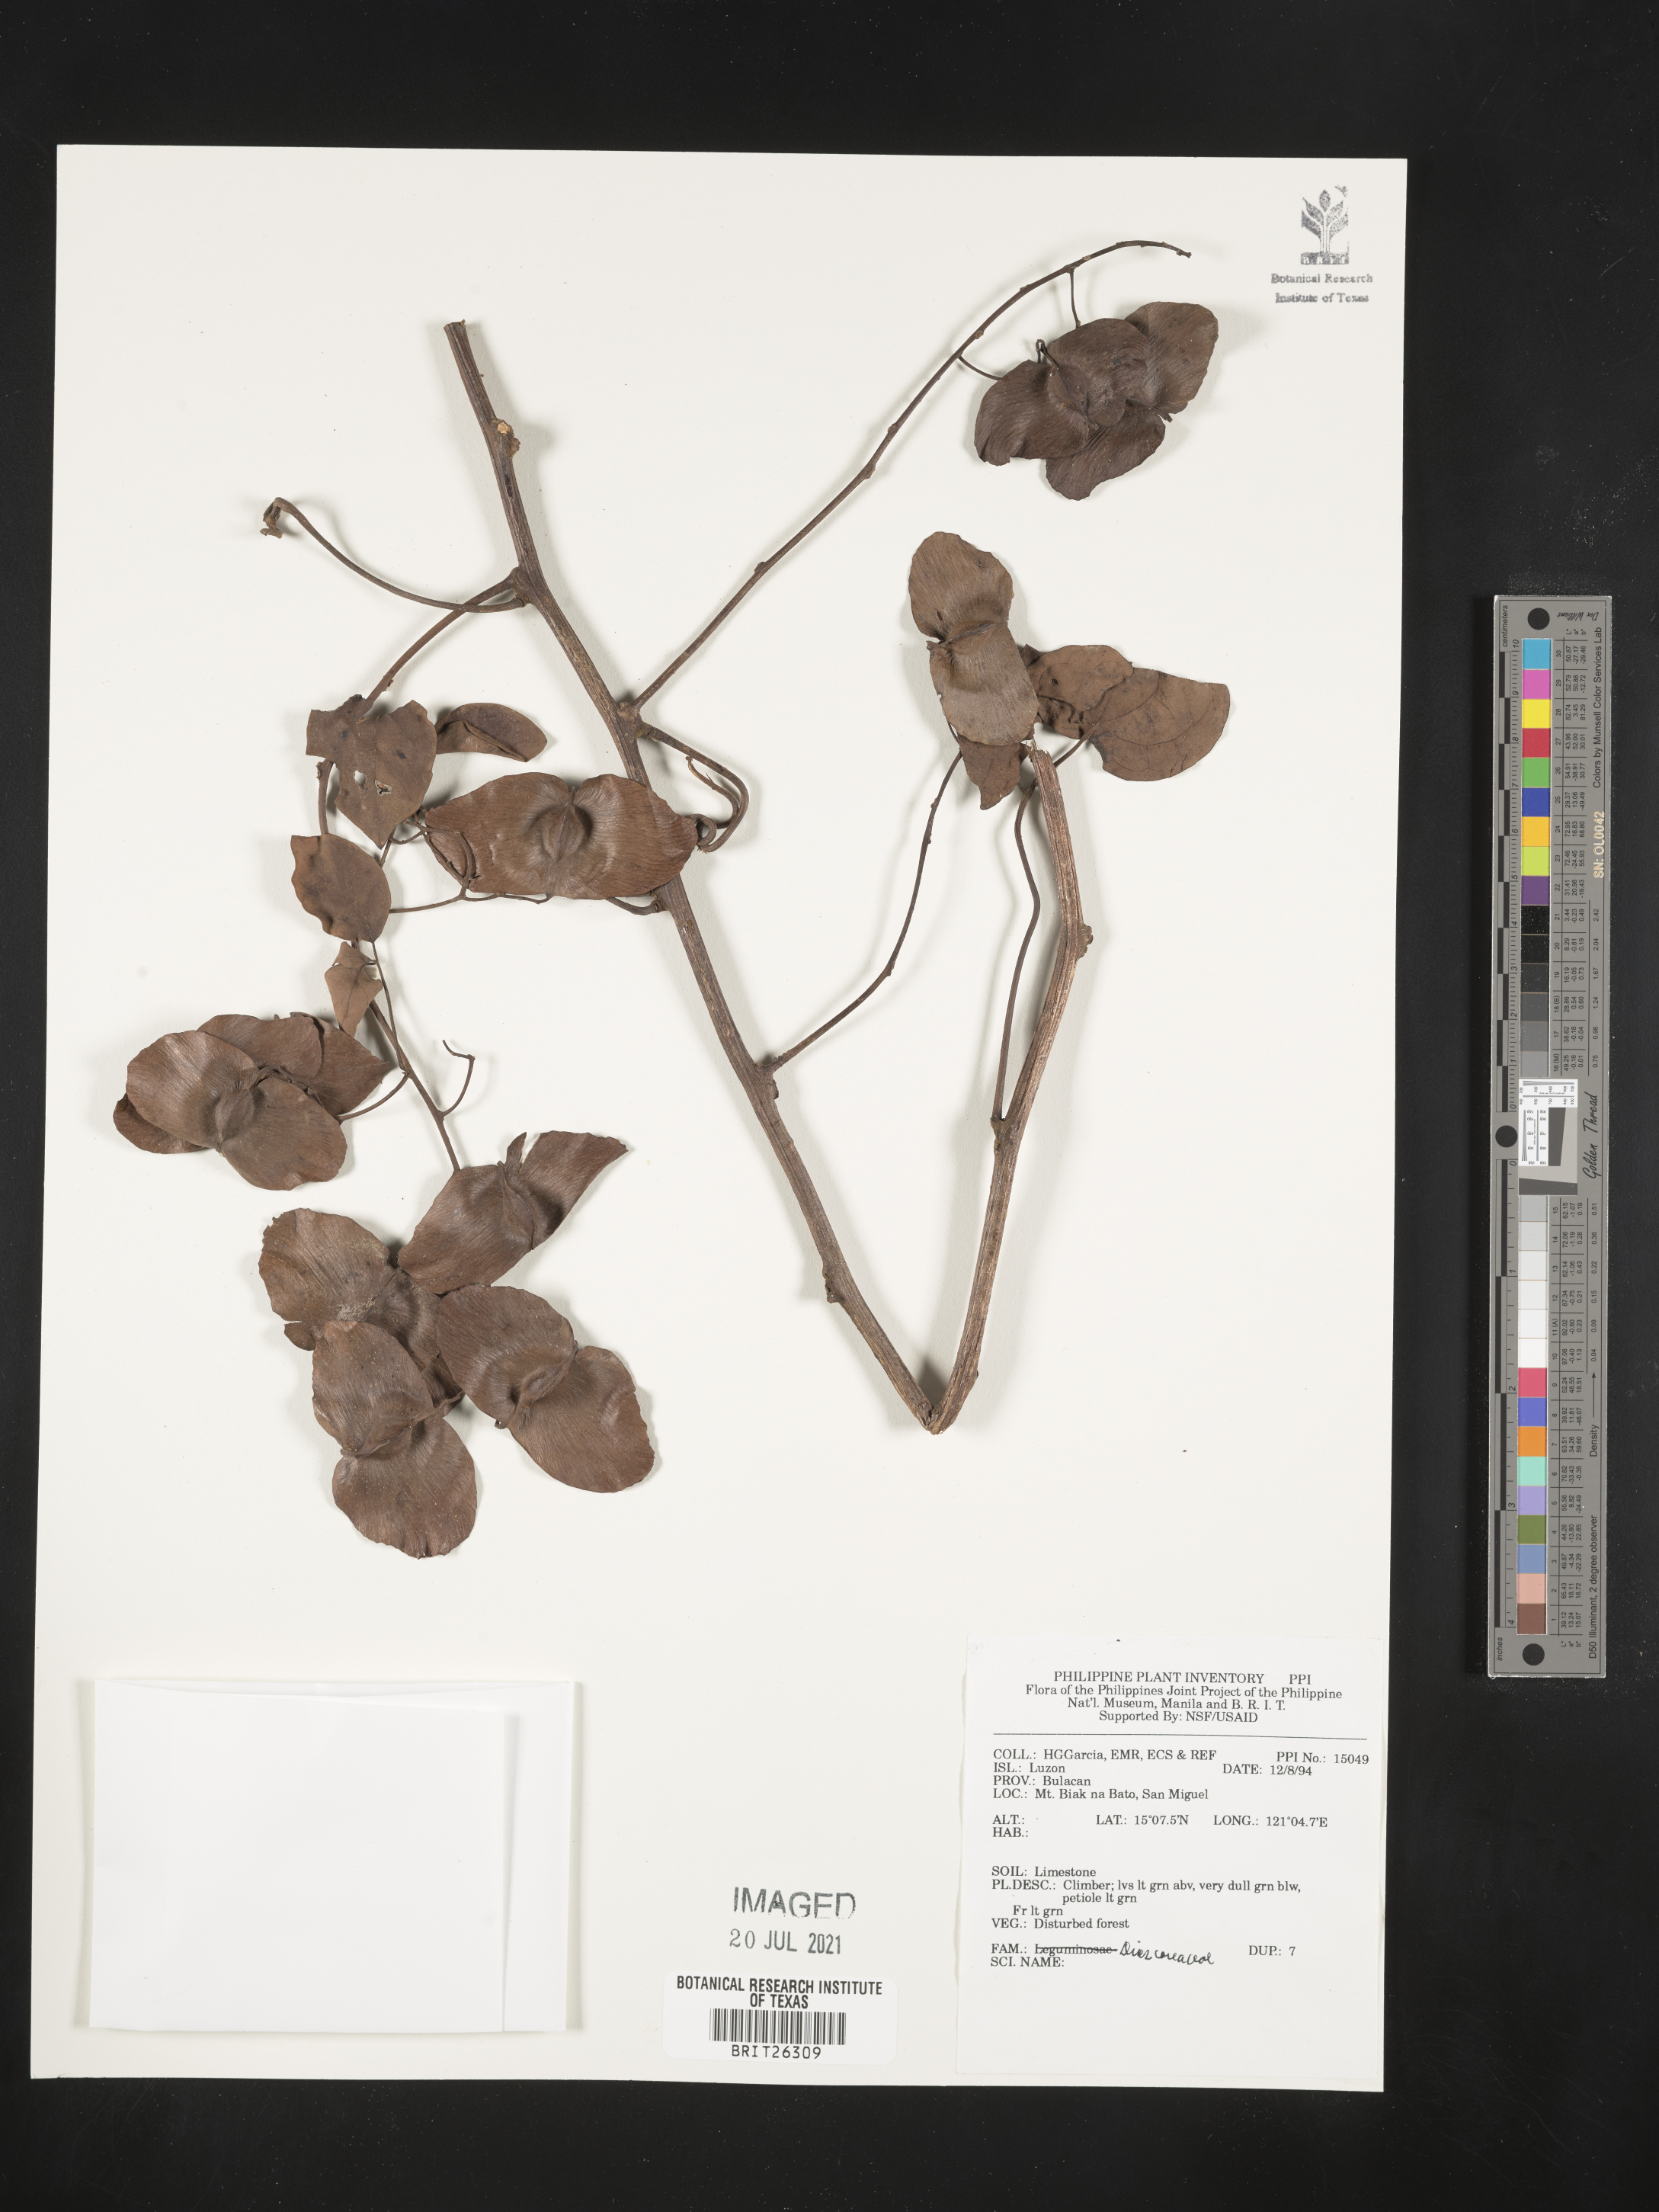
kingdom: Plantae
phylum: Tracheophyta
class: Liliopsida
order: Dioscoreales
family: Dioscoreaceae
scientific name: Dioscoreaceae
